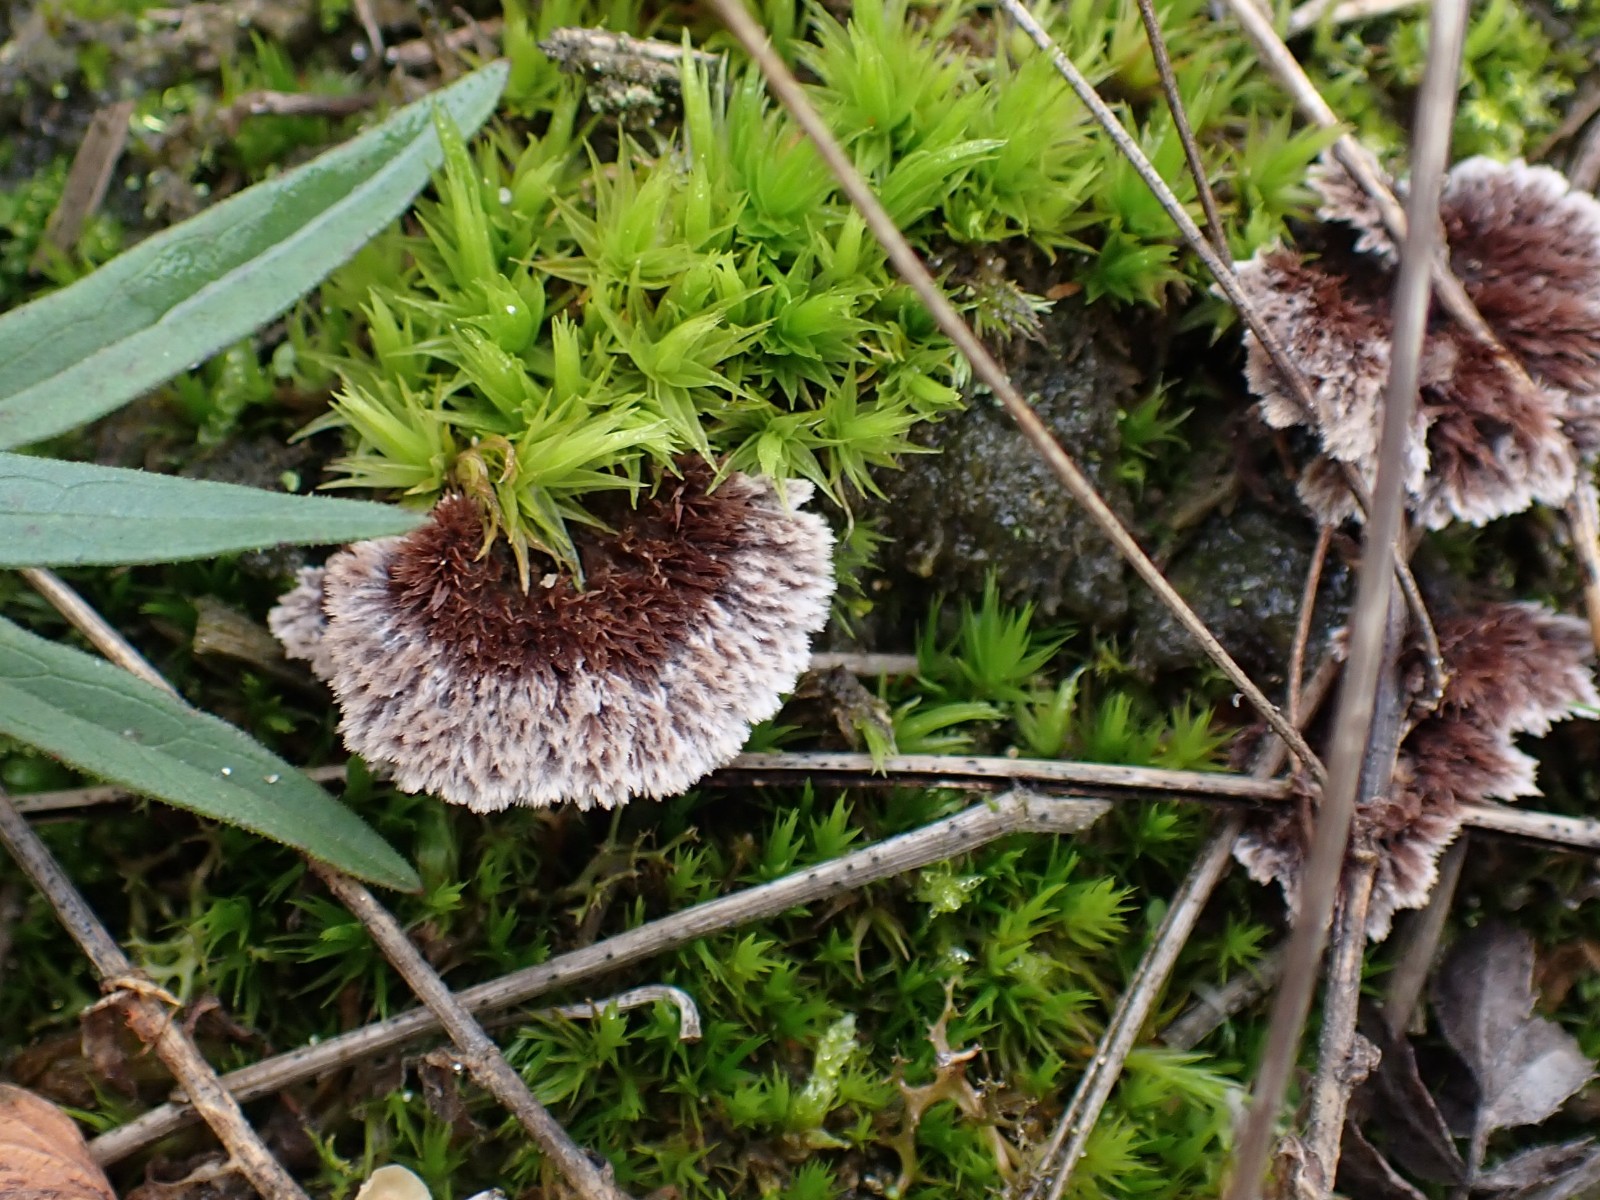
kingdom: Fungi
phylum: Basidiomycota
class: Agaricomycetes
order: Thelephorales
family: Thelephoraceae
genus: Thelephora
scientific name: Thelephora terrestris
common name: fliget frynsesvamp
